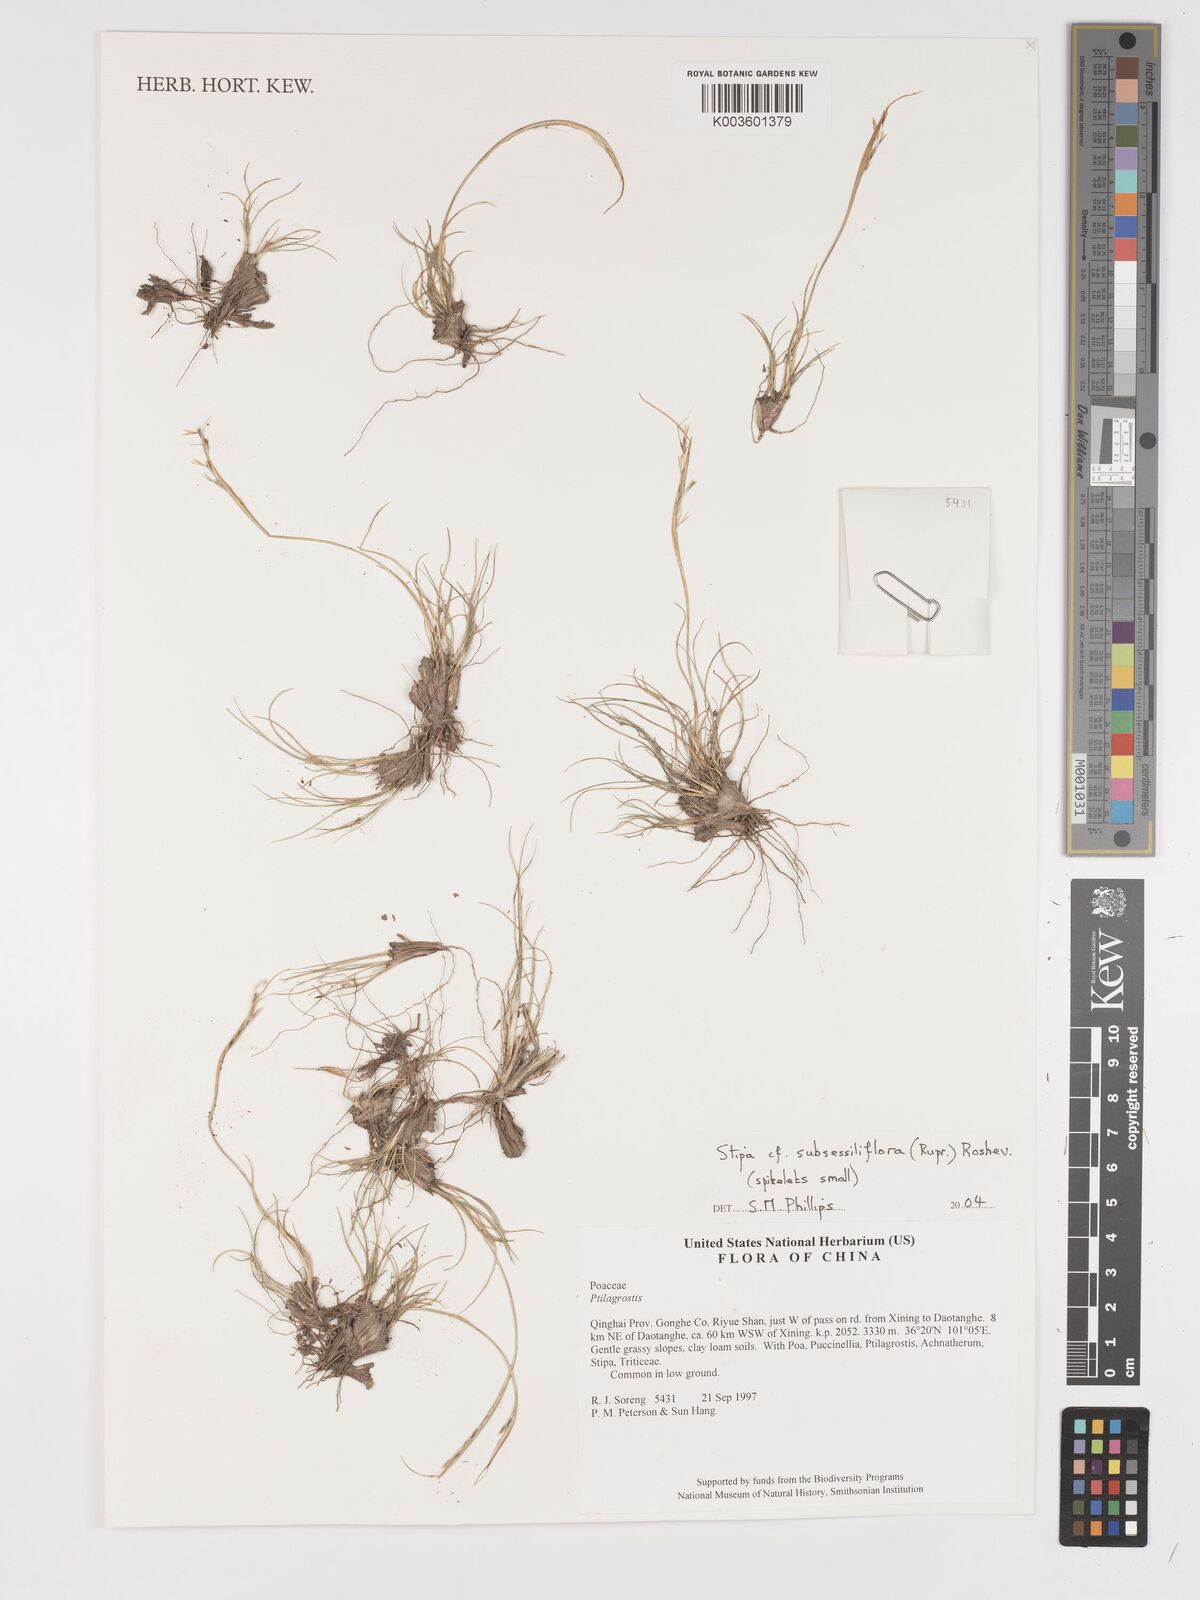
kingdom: Plantae
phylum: Tracheophyta
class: Liliopsida
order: Poales
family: Poaceae
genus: Stipa
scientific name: Stipa subsessiliflora
